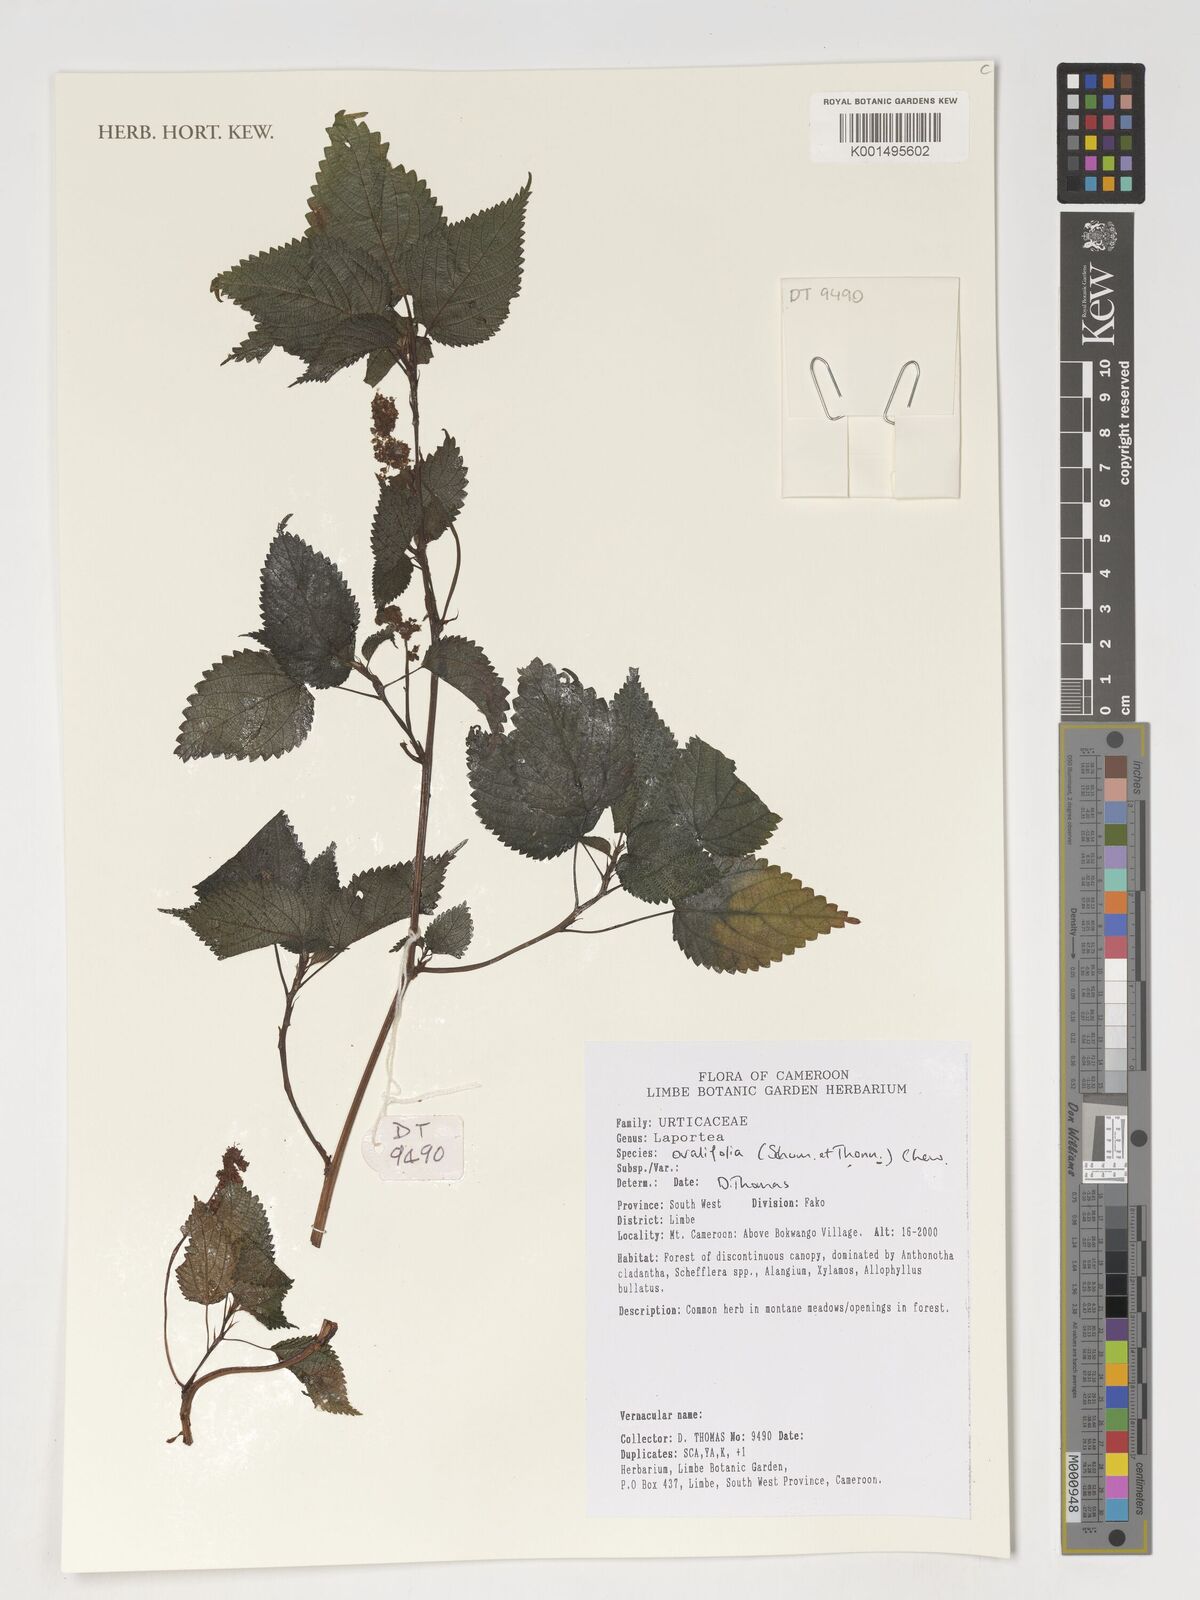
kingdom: Plantae
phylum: Tracheophyta
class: Magnoliopsida
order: Rosales
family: Urticaceae
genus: Laportea
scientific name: Laportea ovalifolia
